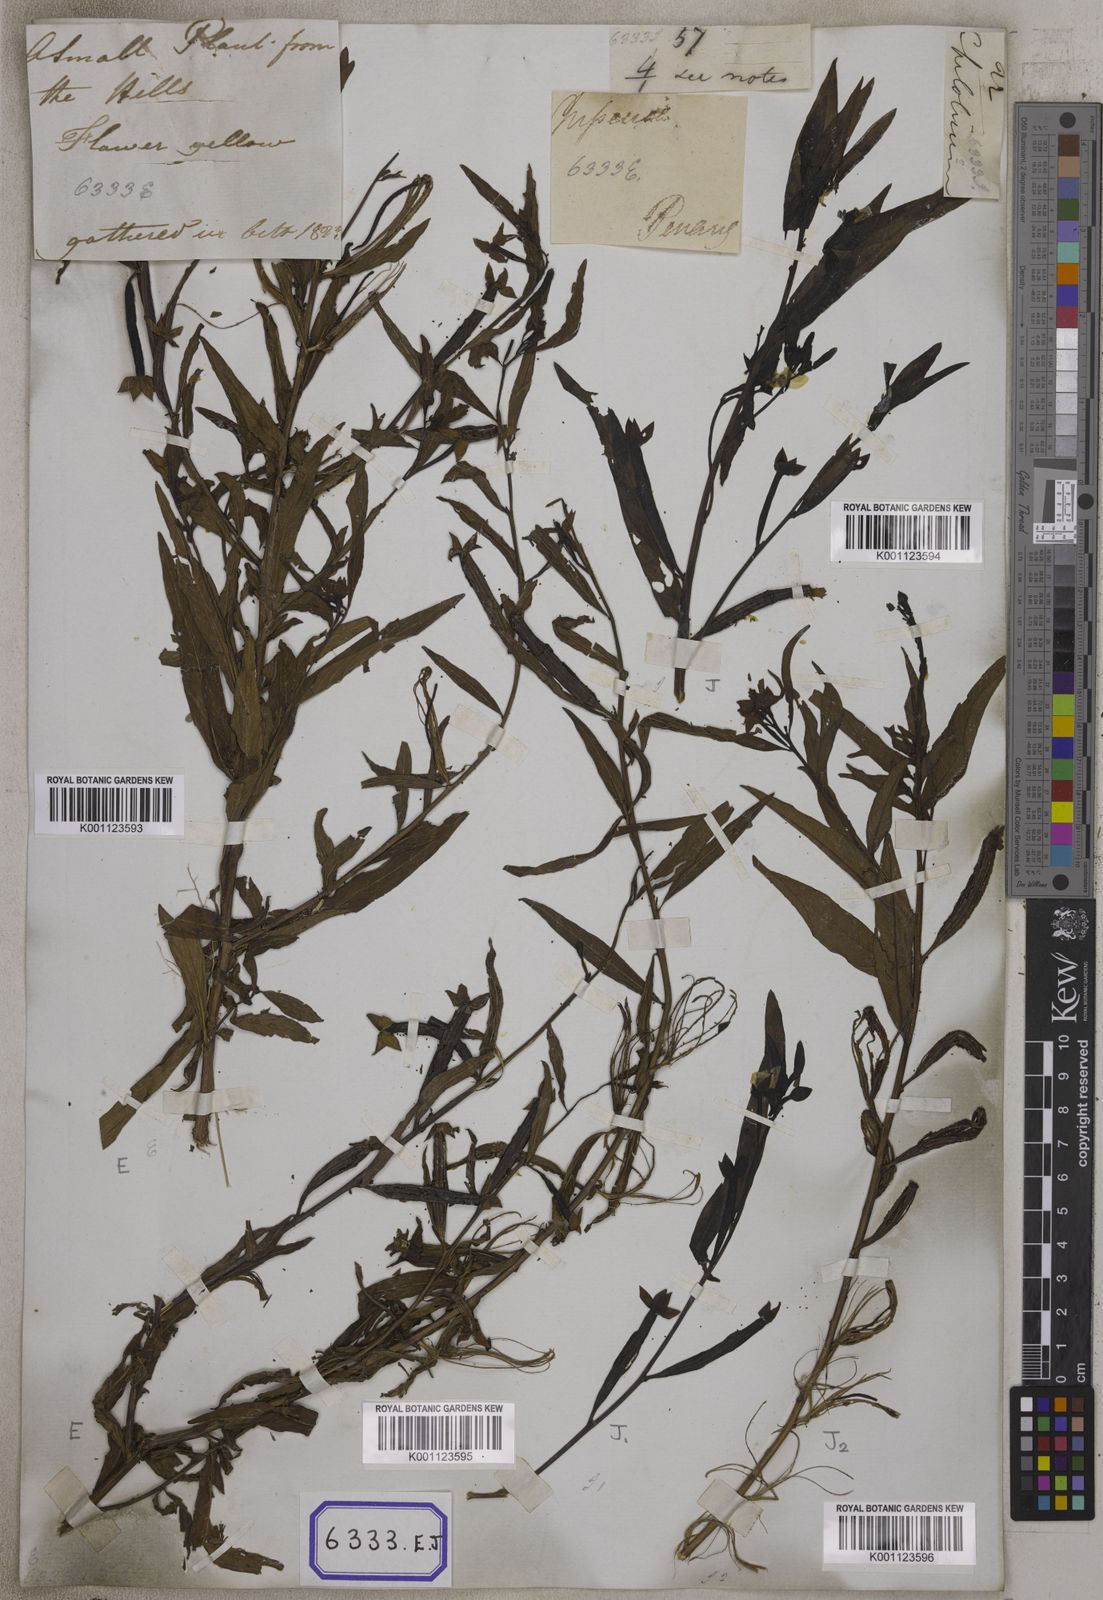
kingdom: Plantae
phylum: Tracheophyta
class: Magnoliopsida
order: Myrtales
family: Onagraceae
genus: Ludwigia
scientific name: Ludwigia octovalvis
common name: Water-primrose
